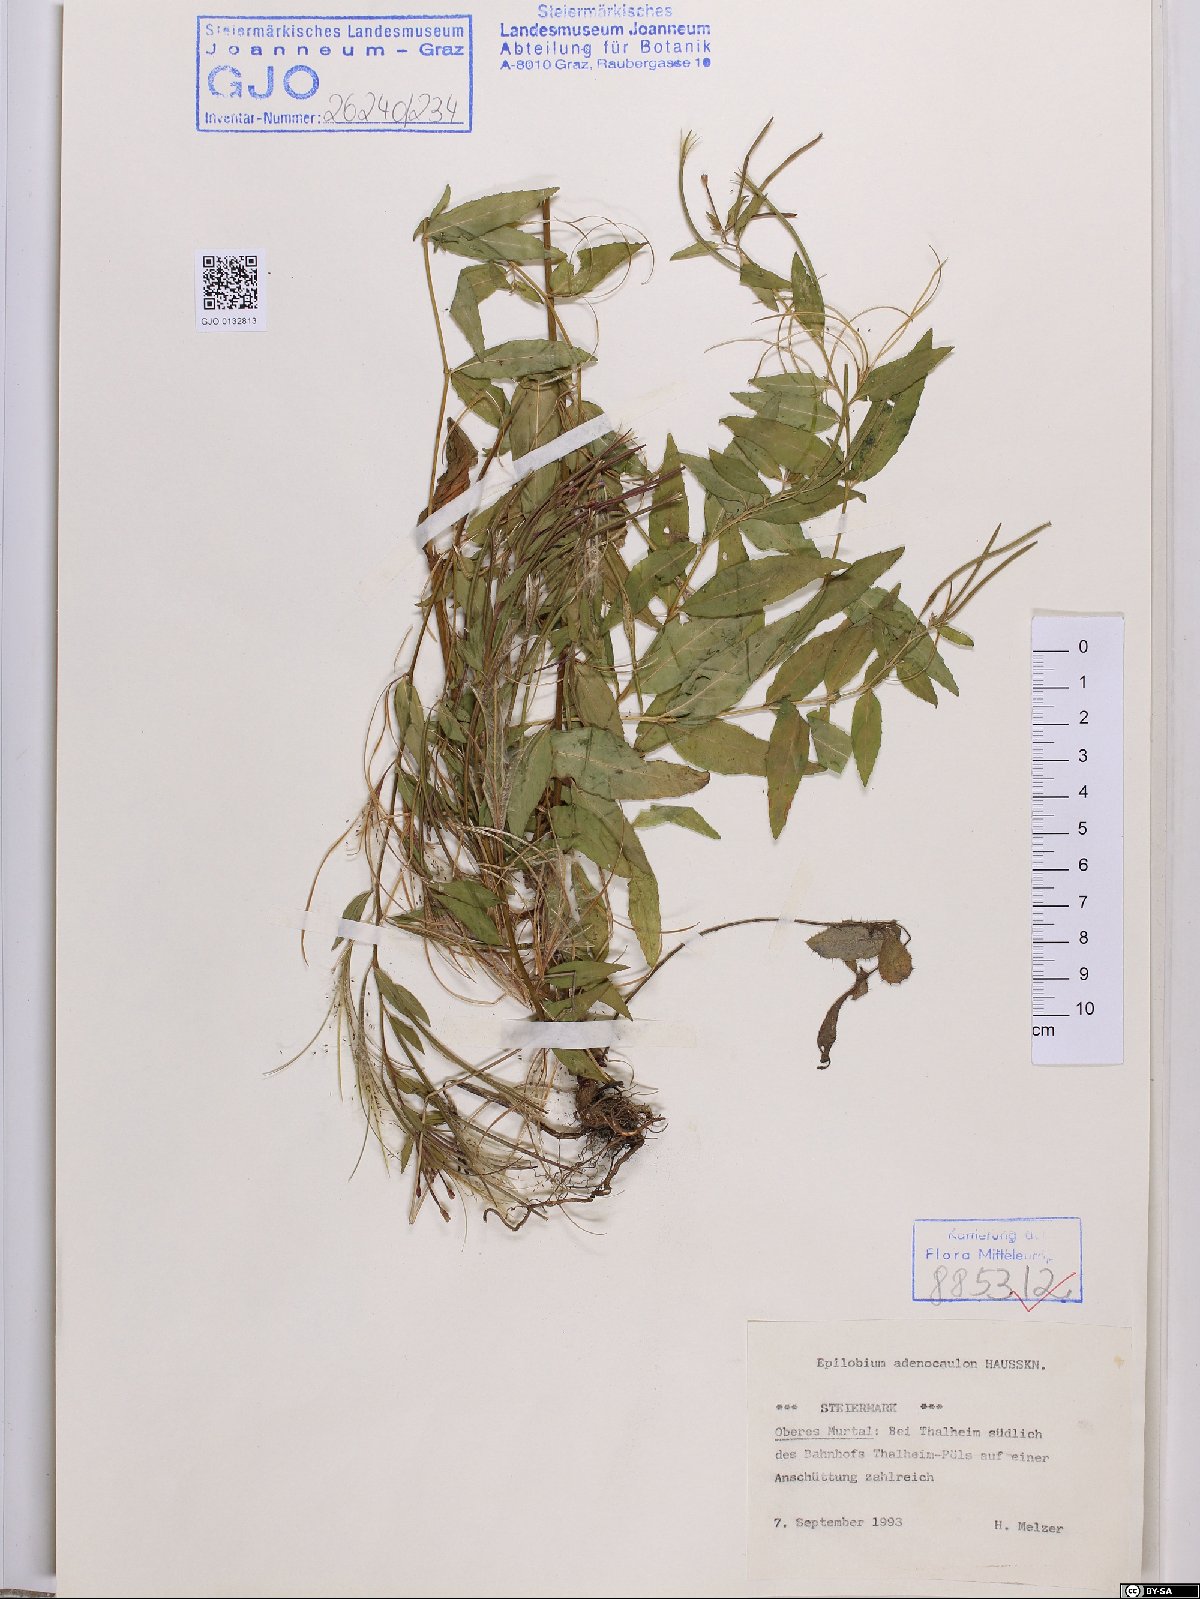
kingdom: Plantae
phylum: Tracheophyta
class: Magnoliopsida
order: Myrtales
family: Onagraceae
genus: Epilobium
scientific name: Epilobium ciliatum
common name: American willowherb
